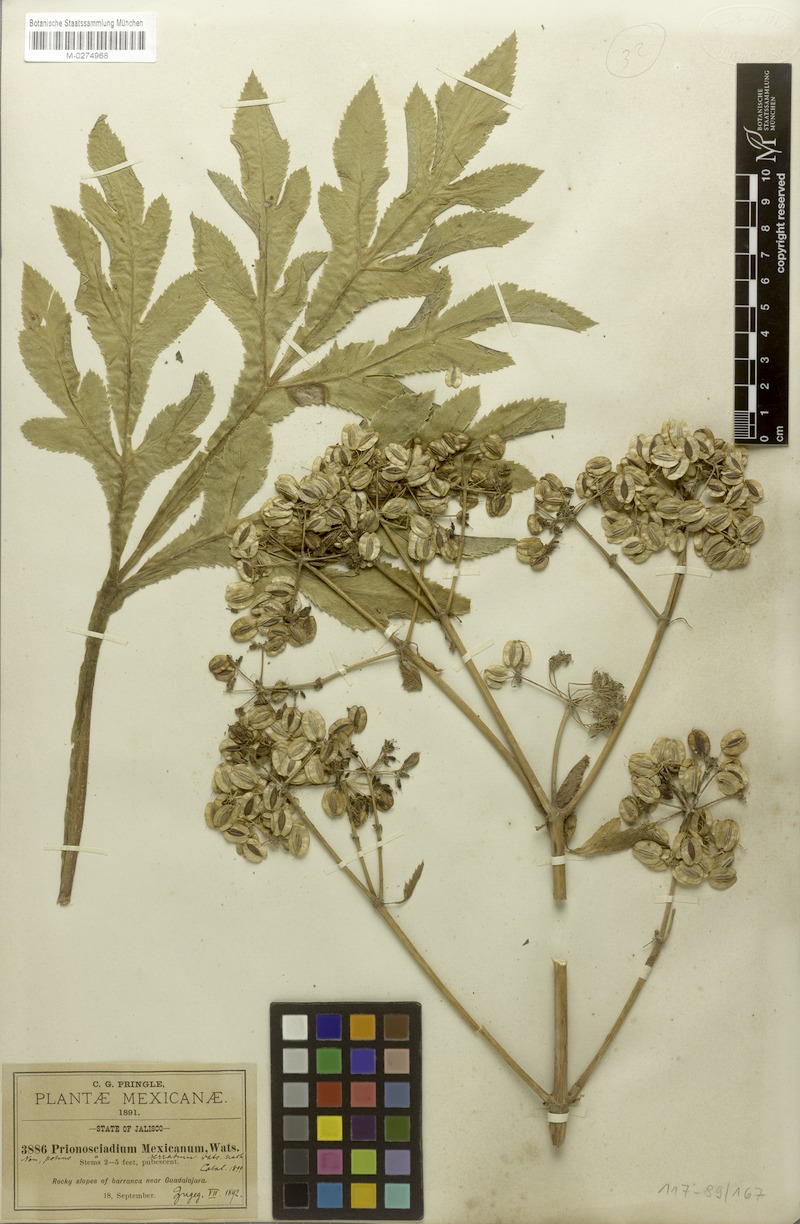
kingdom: Plantae
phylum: Tracheophyta
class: Magnoliopsida
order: Apiales
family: Apiaceae
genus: Prionosciadium
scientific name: Prionosciadium serratum
